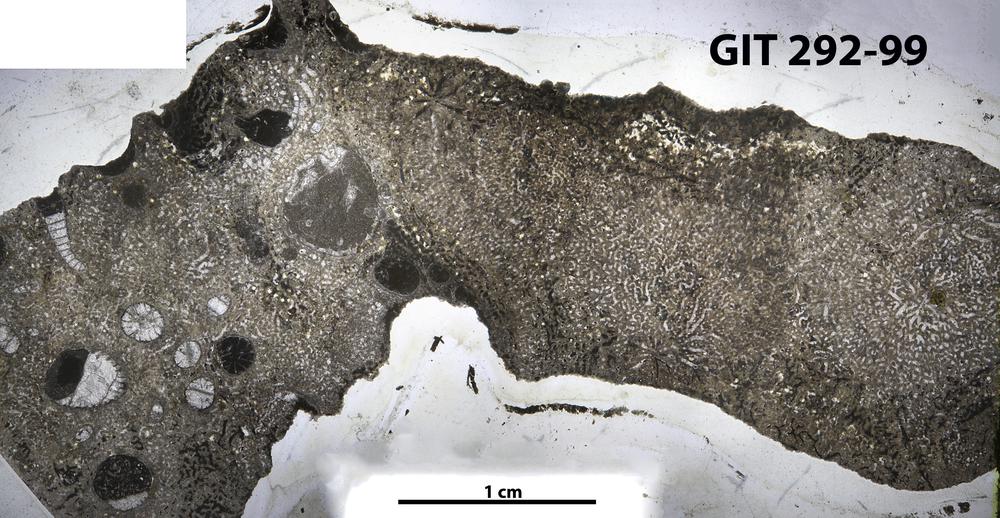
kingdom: Animalia
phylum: Porifera
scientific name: Porifera
